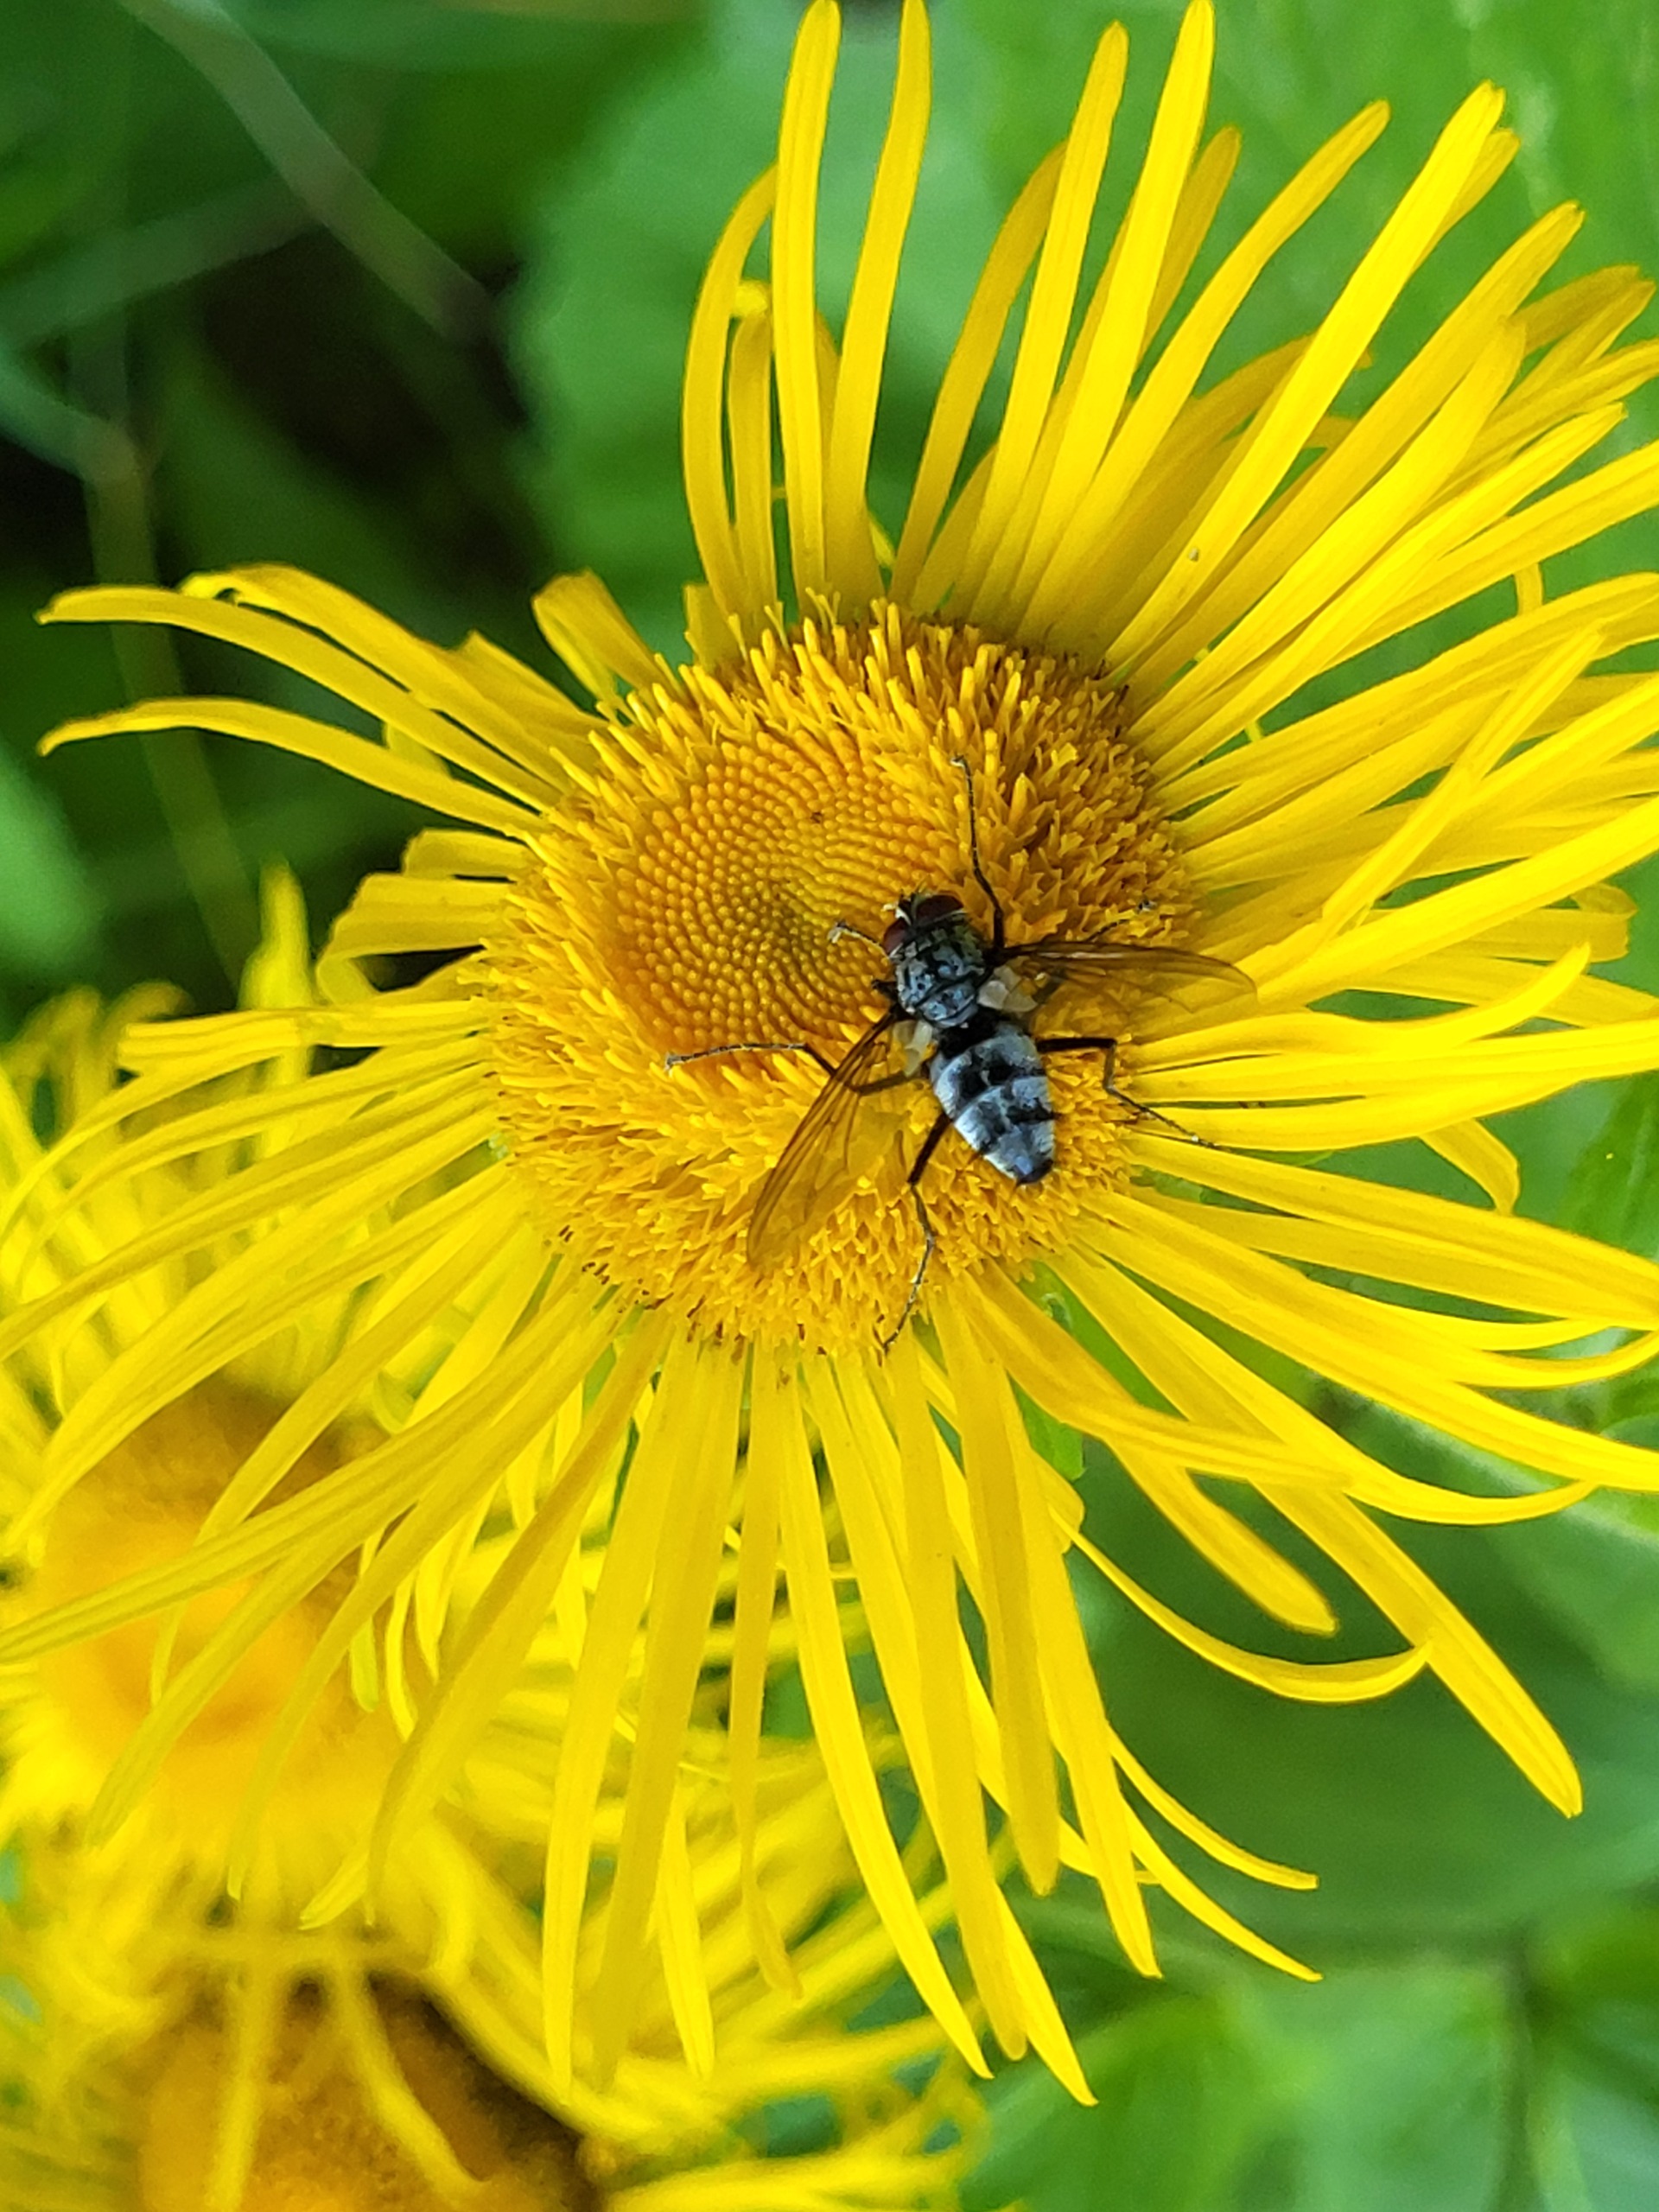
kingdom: Animalia
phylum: Arthropoda
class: Insecta
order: Diptera
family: Tachinidae
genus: Dinera
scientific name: Dinera ferina
